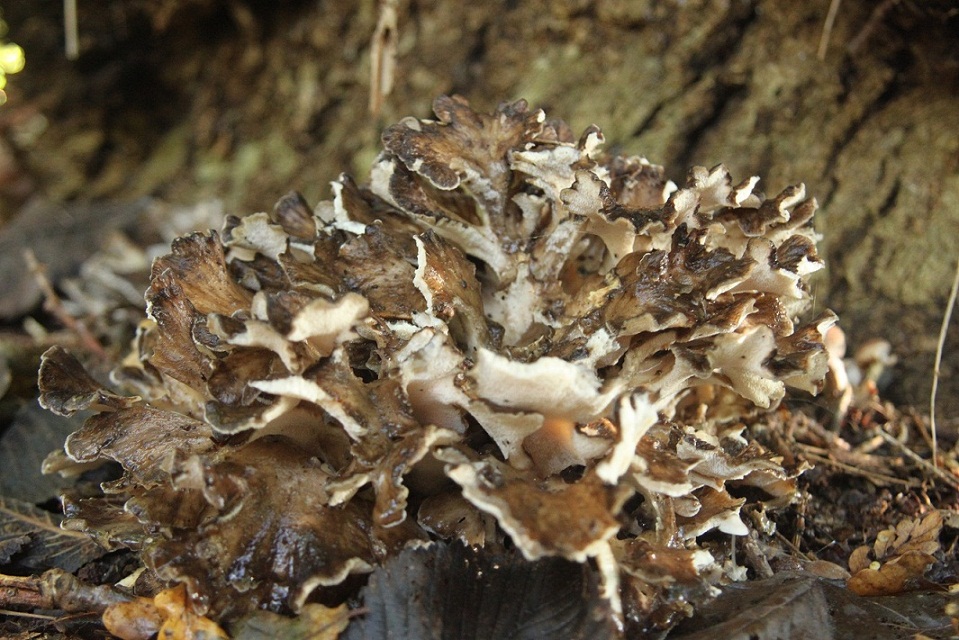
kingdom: Fungi
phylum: Basidiomycota
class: Agaricomycetes
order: Polyporales
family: Grifolaceae
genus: Grifola
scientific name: Grifola frondosa
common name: tueporesvamp
